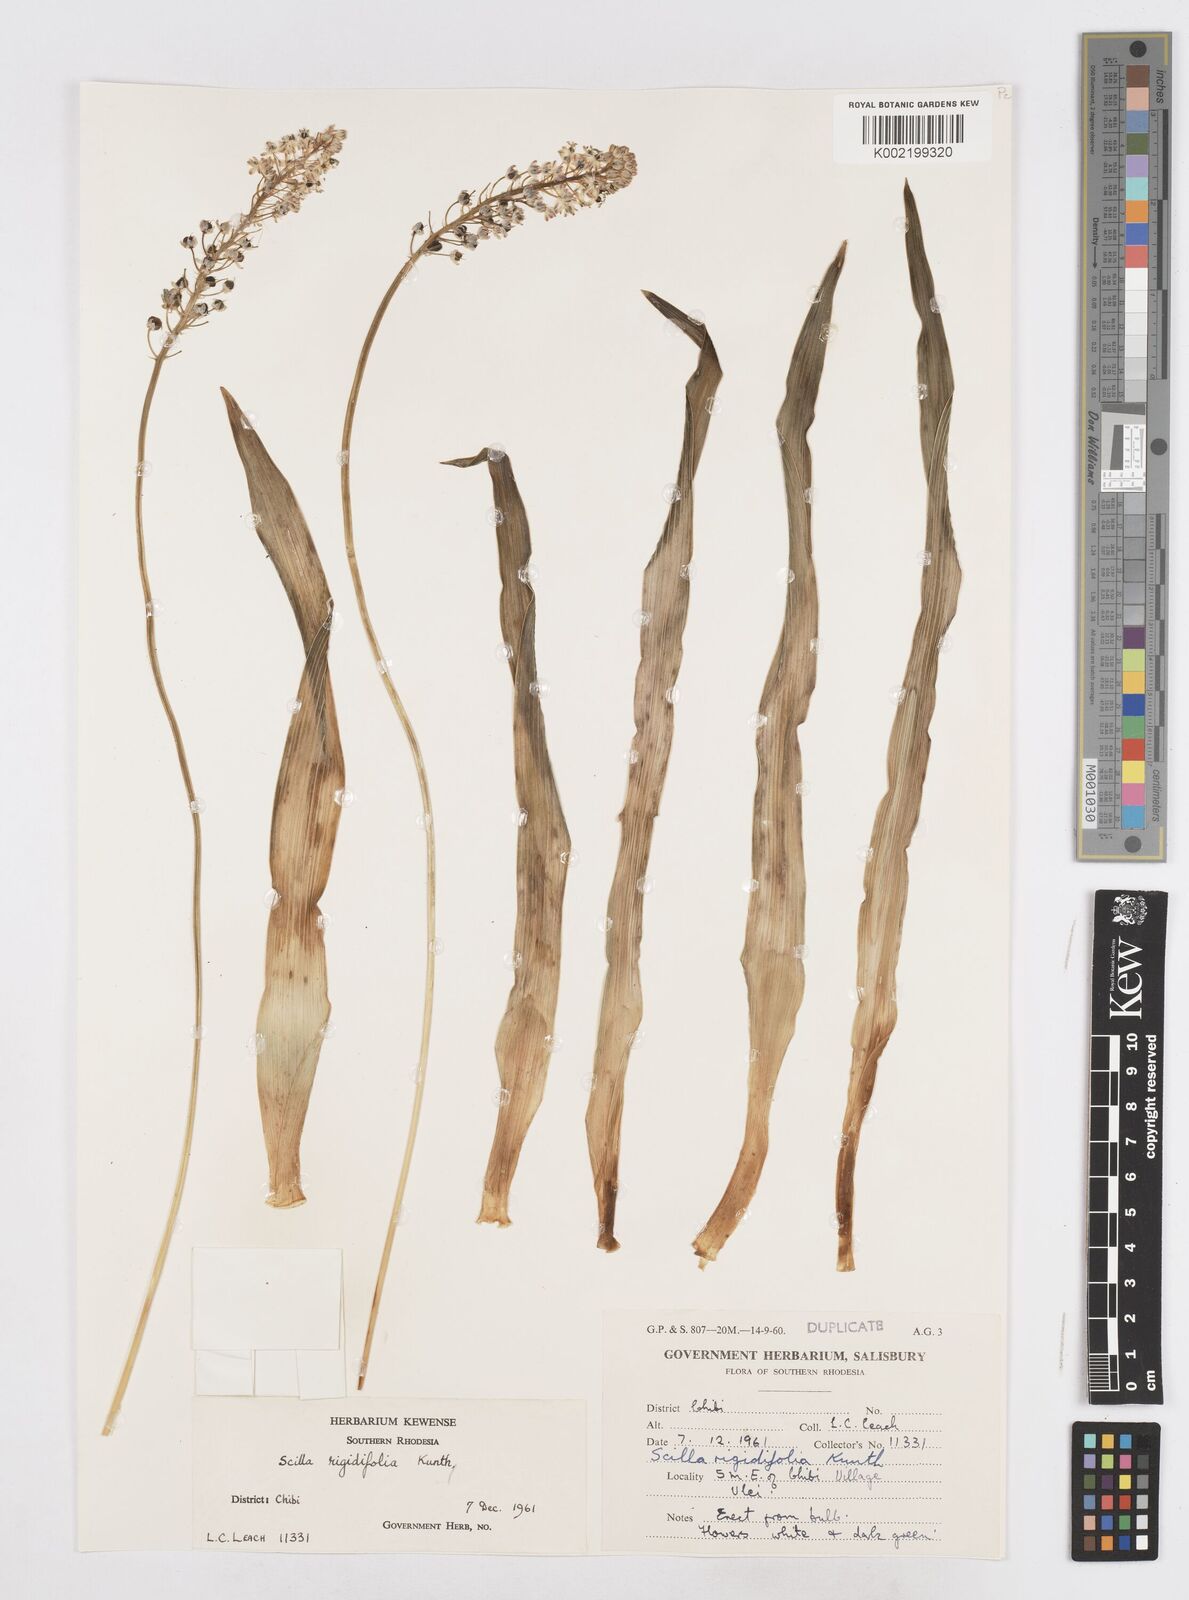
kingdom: Plantae
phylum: Tracheophyta
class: Liliopsida
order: Asparagales
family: Asparagaceae
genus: Schizocarphus
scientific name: Schizocarphus nervosus
